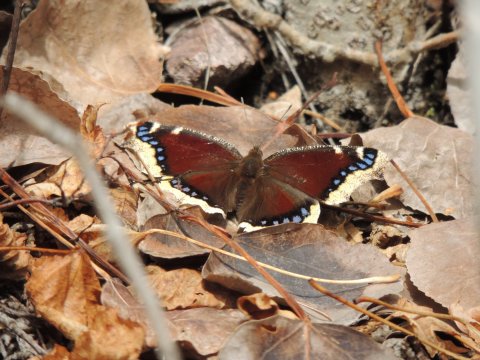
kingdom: Animalia
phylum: Arthropoda
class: Insecta
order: Lepidoptera
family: Nymphalidae
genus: Nymphalis
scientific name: Nymphalis antiopa
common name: Mourning Cloak
